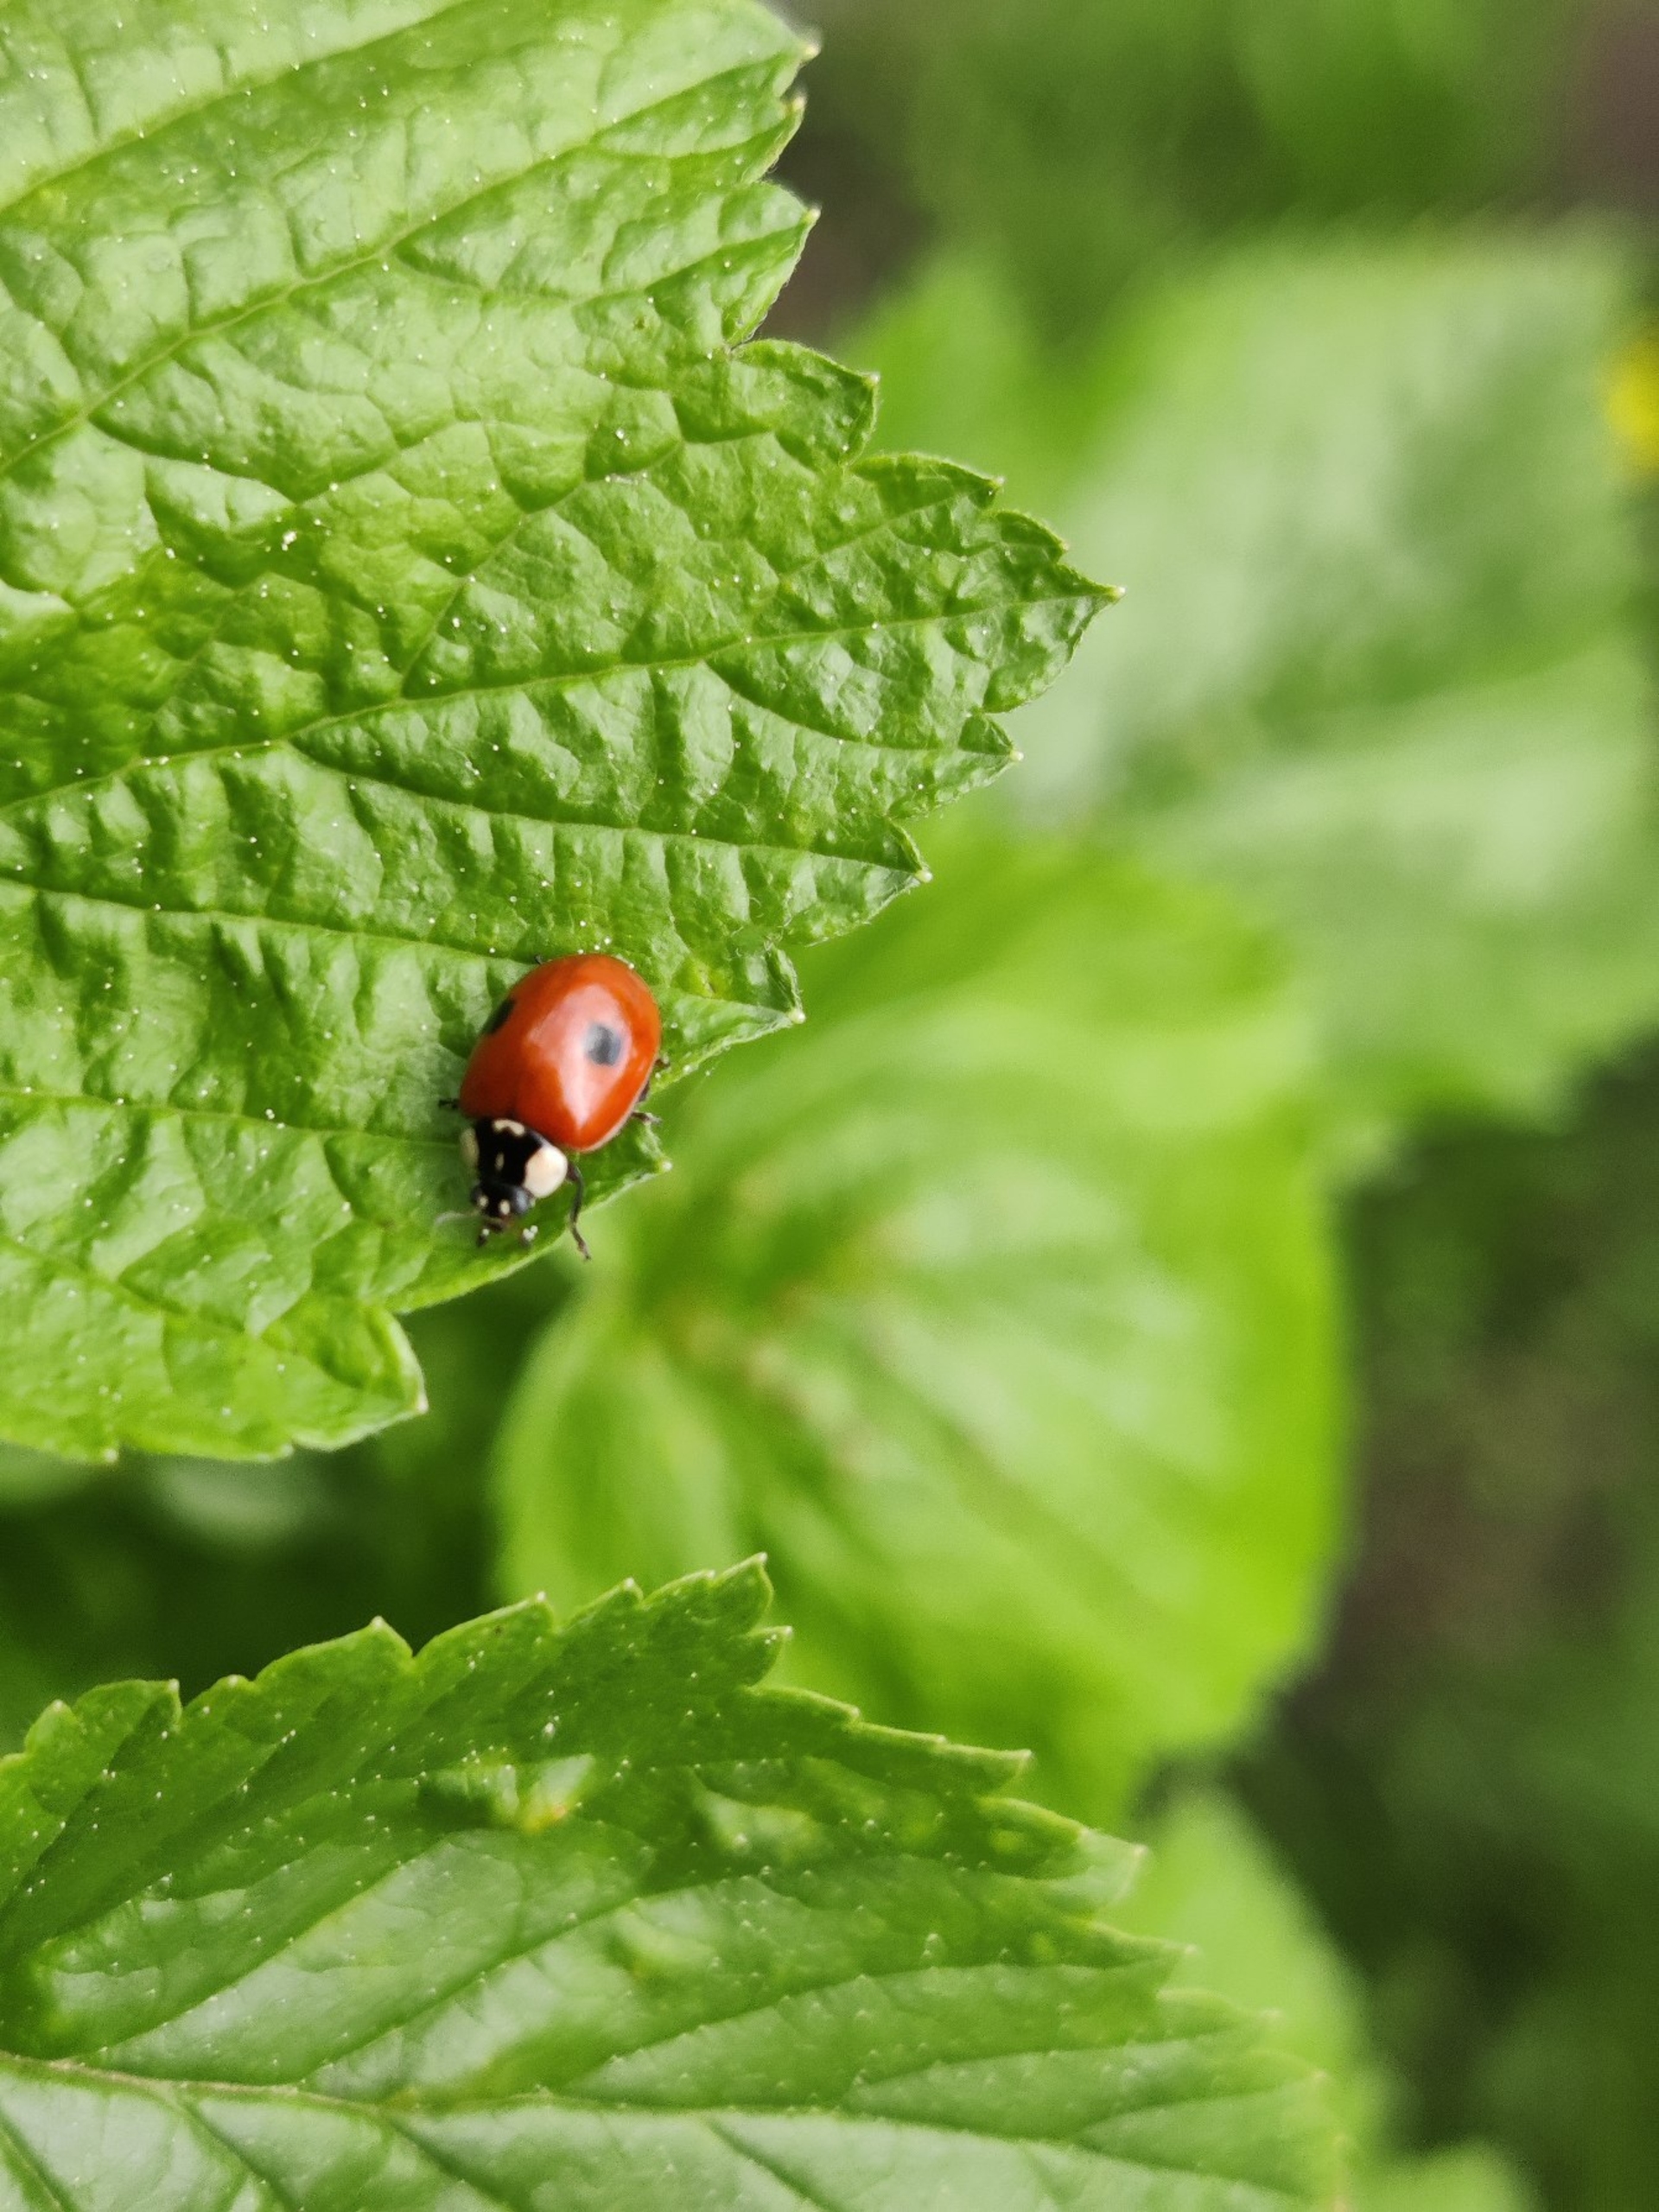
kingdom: Animalia
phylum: Arthropoda
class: Insecta
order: Coleoptera
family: Coccinellidae
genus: Adalia
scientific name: Adalia bipunctata
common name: Toplettet mariehøne
